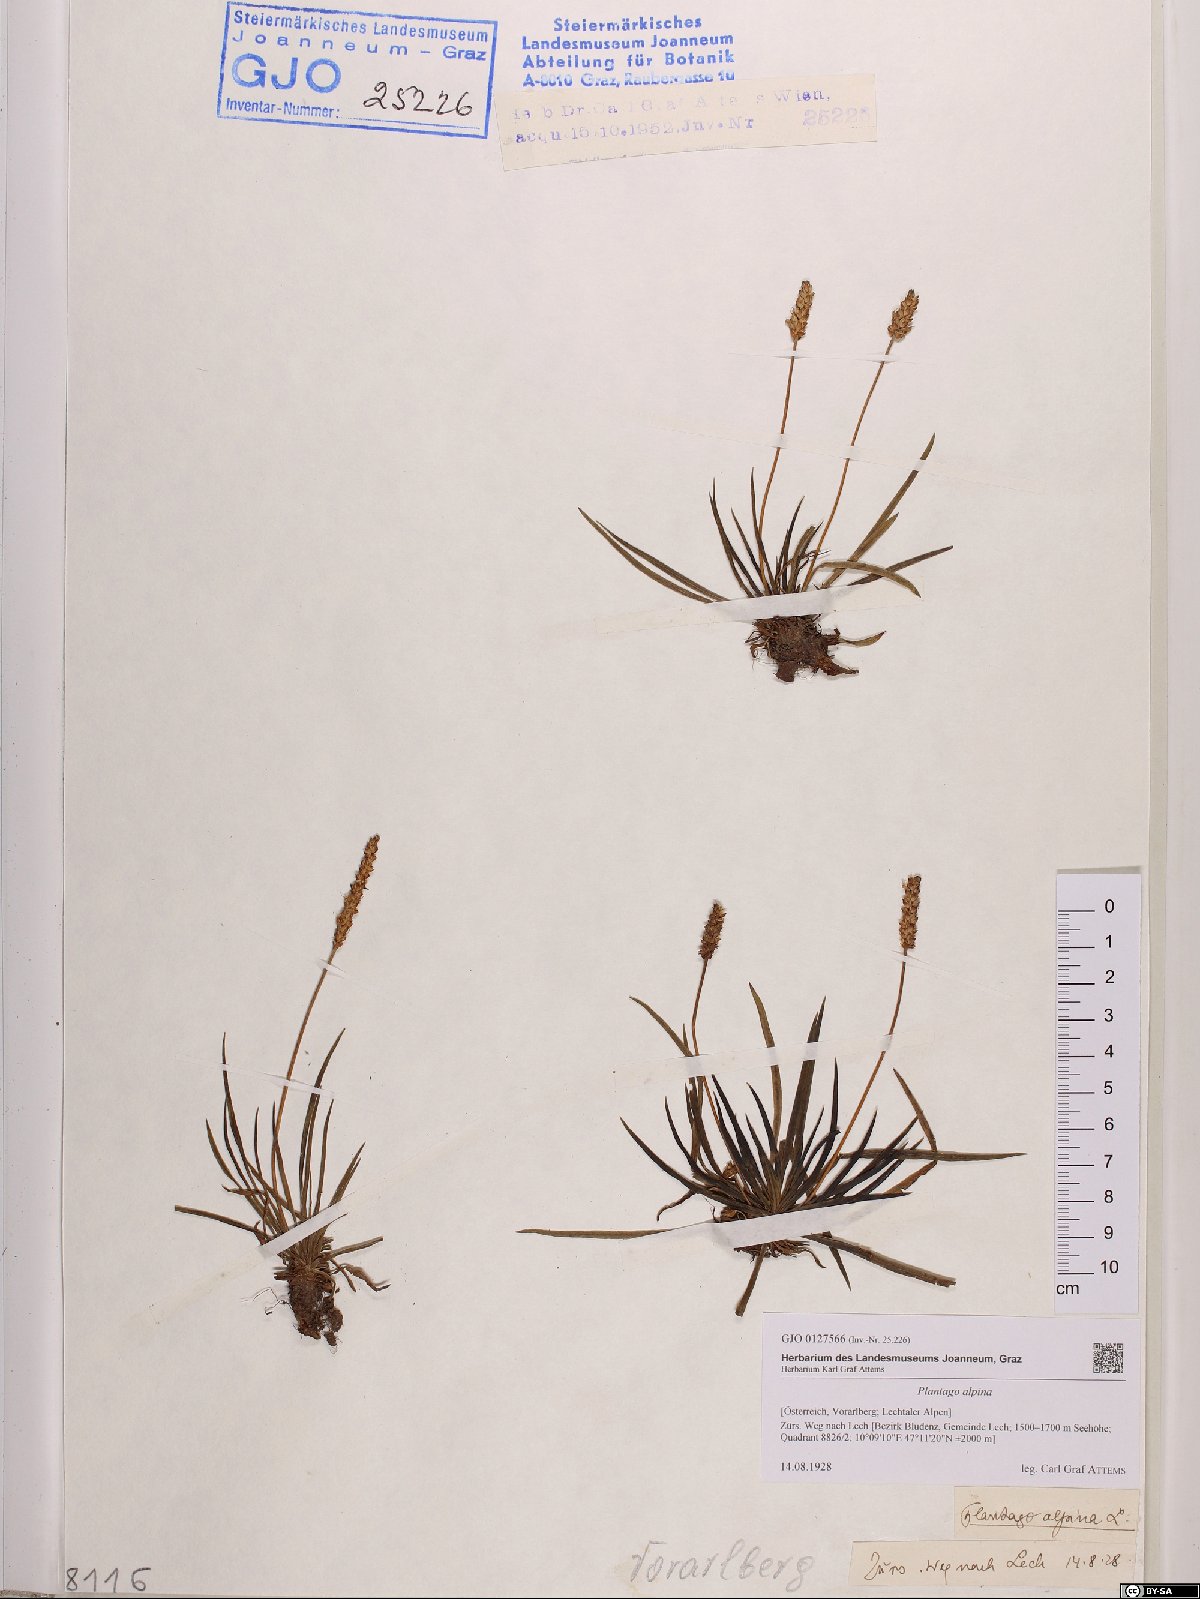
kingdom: Plantae
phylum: Tracheophyta
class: Magnoliopsida
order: Lamiales
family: Plantaginaceae
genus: Plantago
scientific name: Plantago alpina
